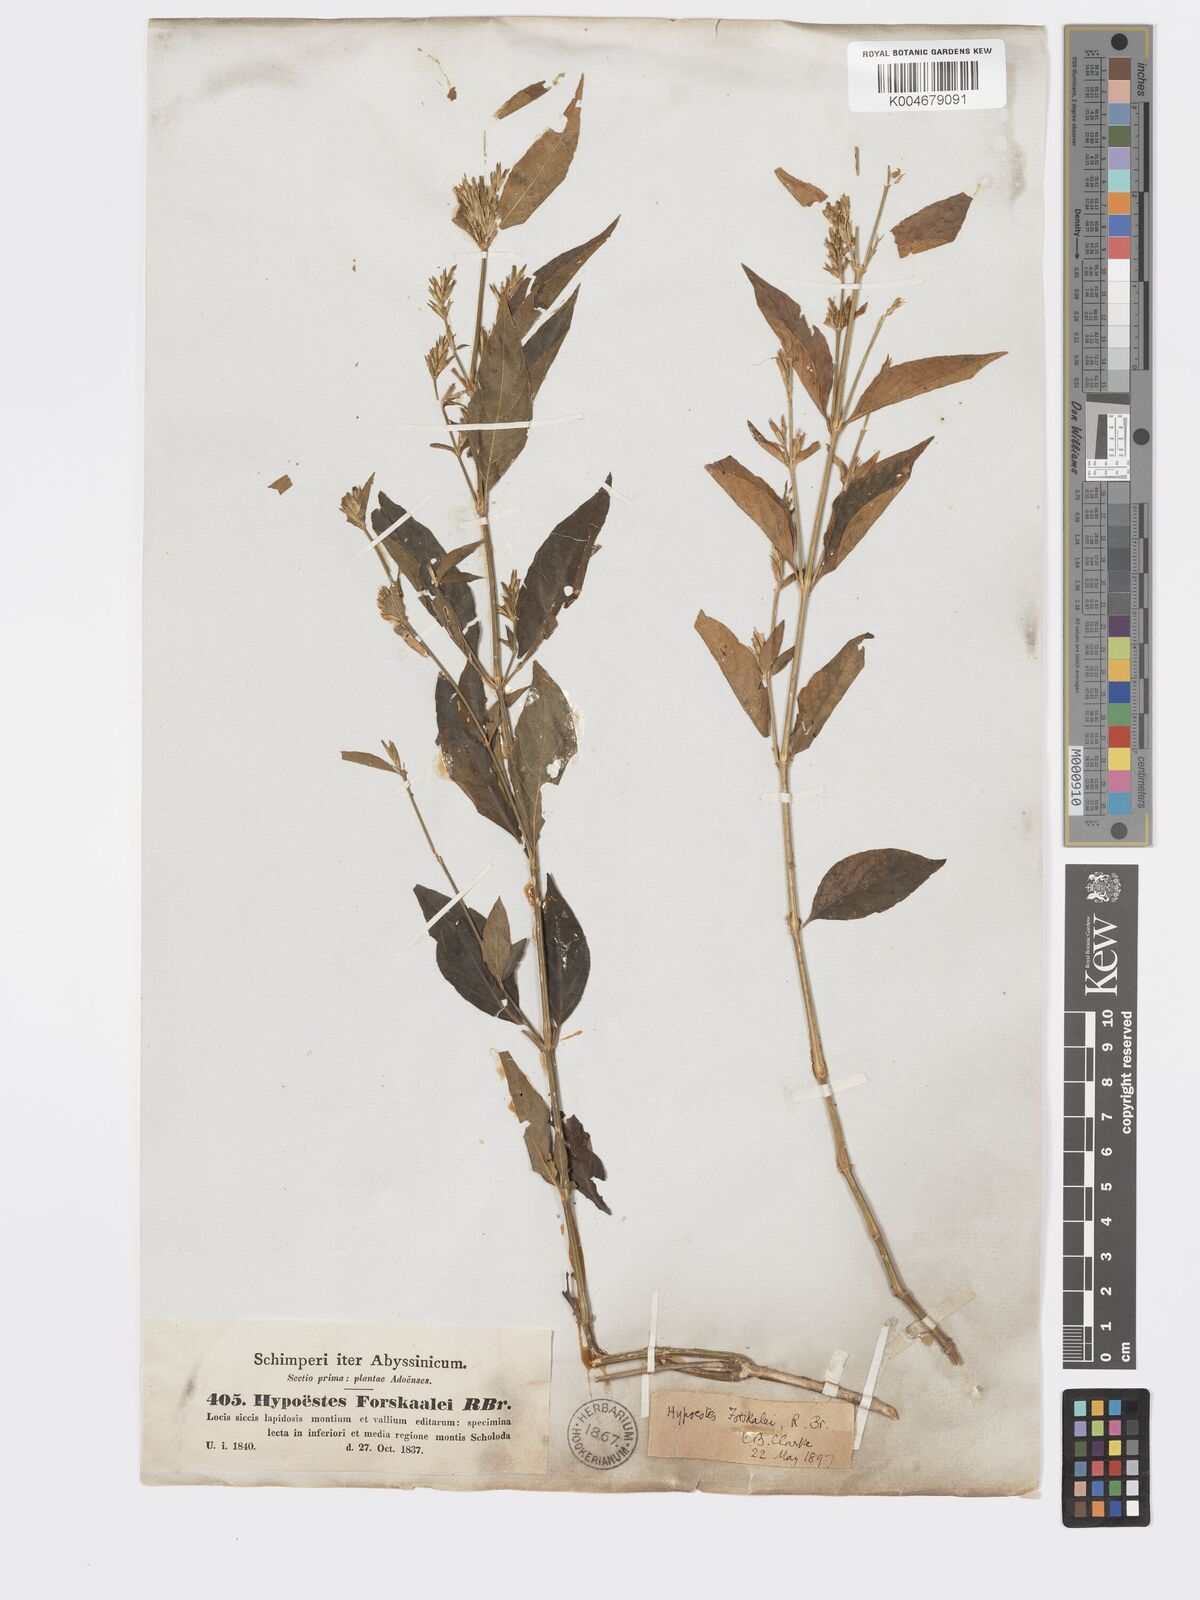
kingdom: Plantae
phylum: Tracheophyta
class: Magnoliopsida
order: Lamiales
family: Acanthaceae
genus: Hypoestes
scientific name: Hypoestes forskaolii
